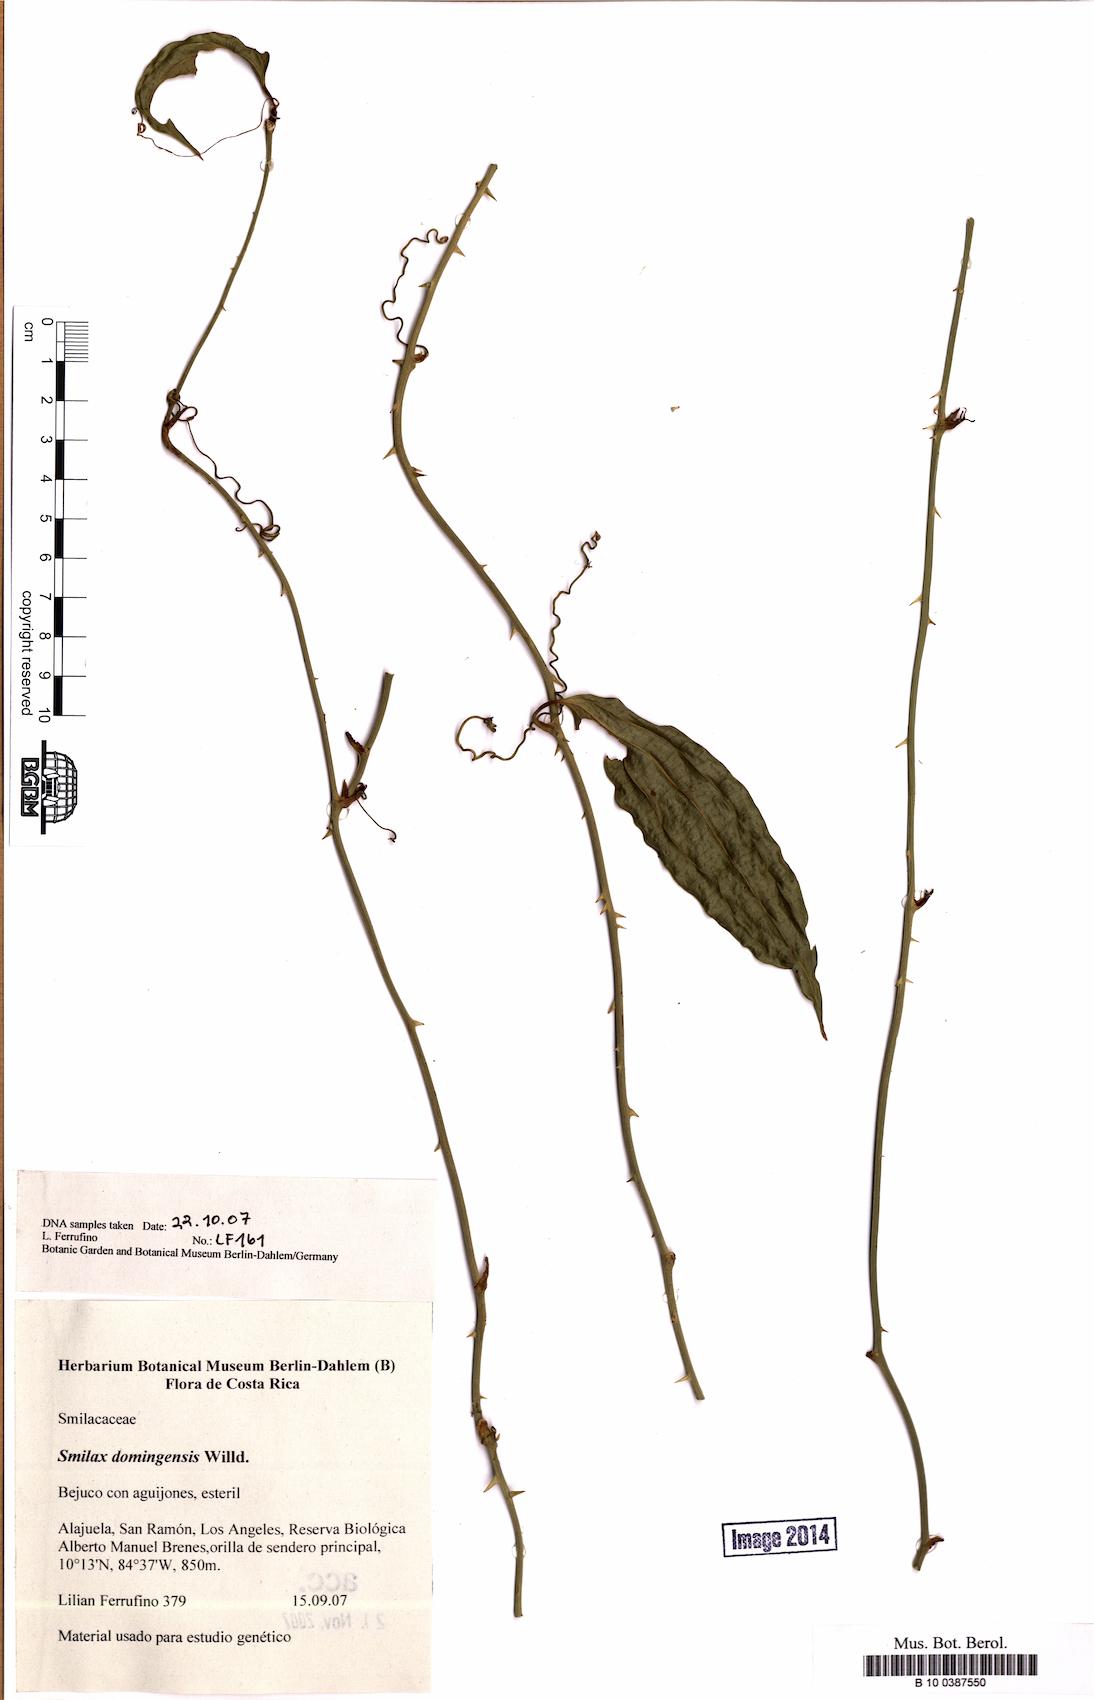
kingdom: Plantae
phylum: Tracheophyta
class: Liliopsida
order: Liliales
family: Smilacaceae
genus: Smilax
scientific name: Smilax domingensis
